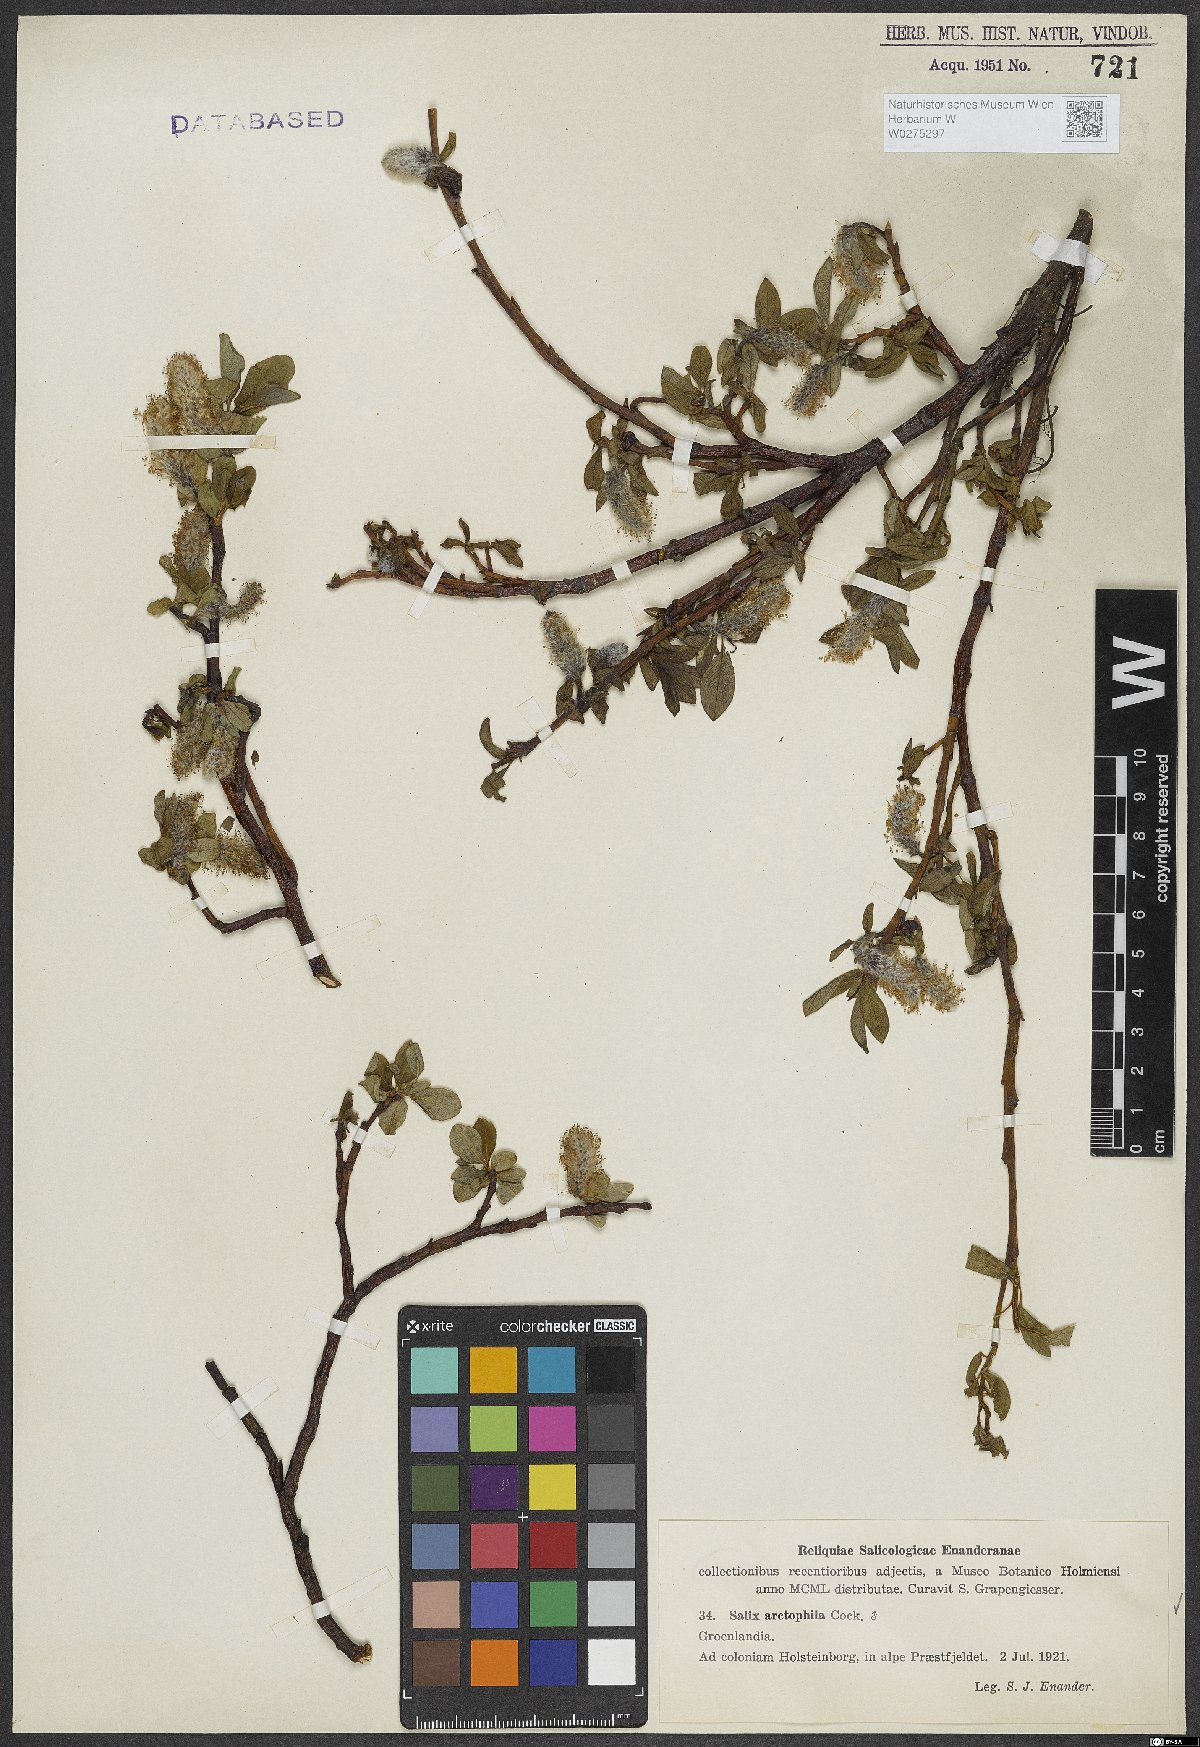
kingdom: Plantae
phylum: Tracheophyta
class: Magnoliopsida
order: Malpighiales
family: Salicaceae
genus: Salix
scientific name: Salix arctophila
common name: Greenland willow
